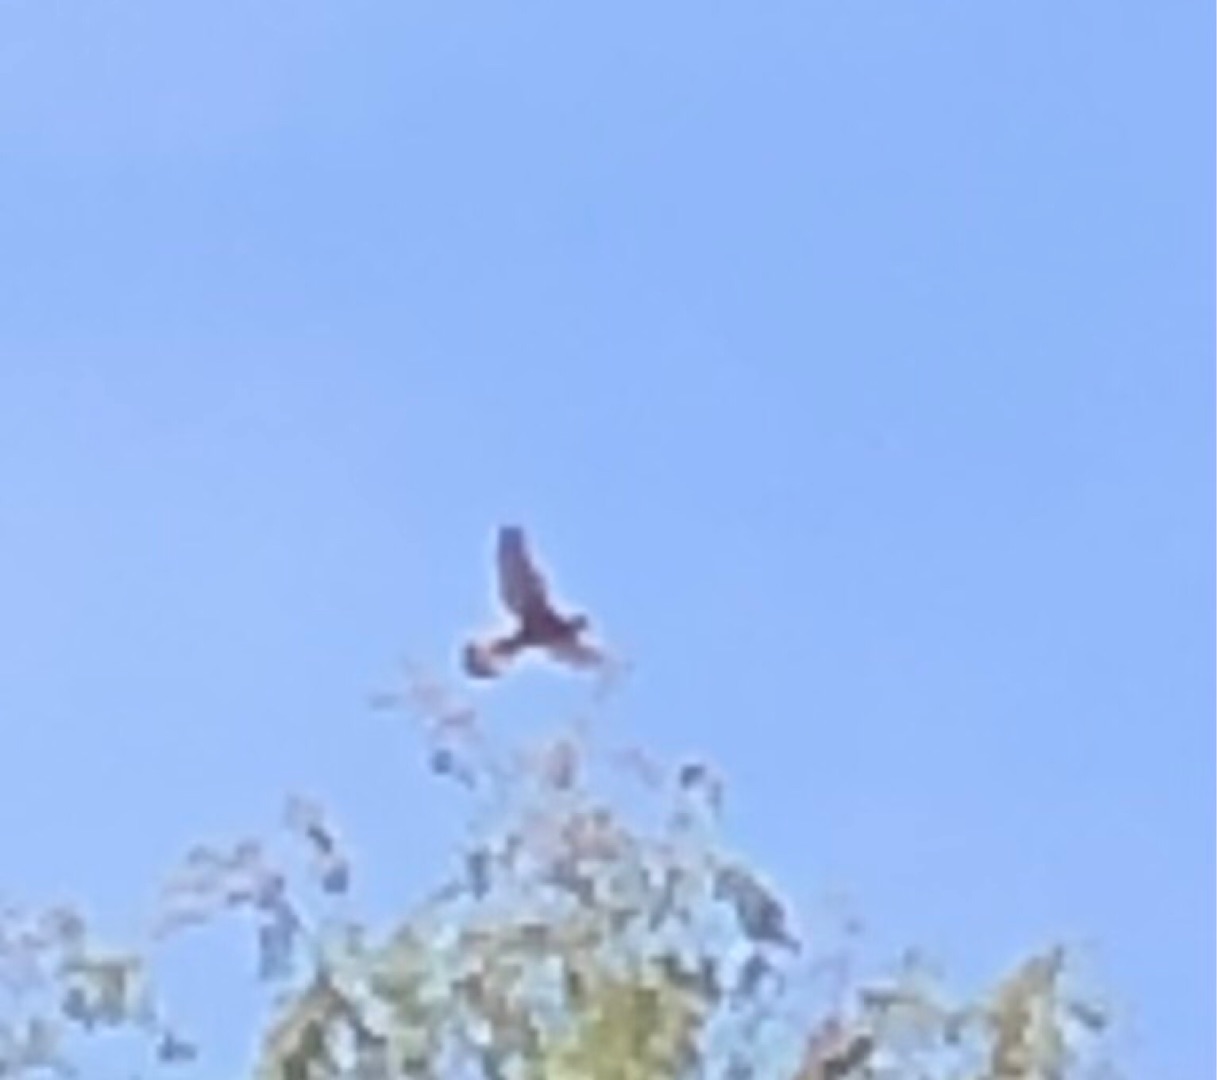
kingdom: Animalia
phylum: Chordata
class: Aves
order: Falconiformes
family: Falconidae
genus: Falco
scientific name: Falco tinnunculus
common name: Tårnfalk
